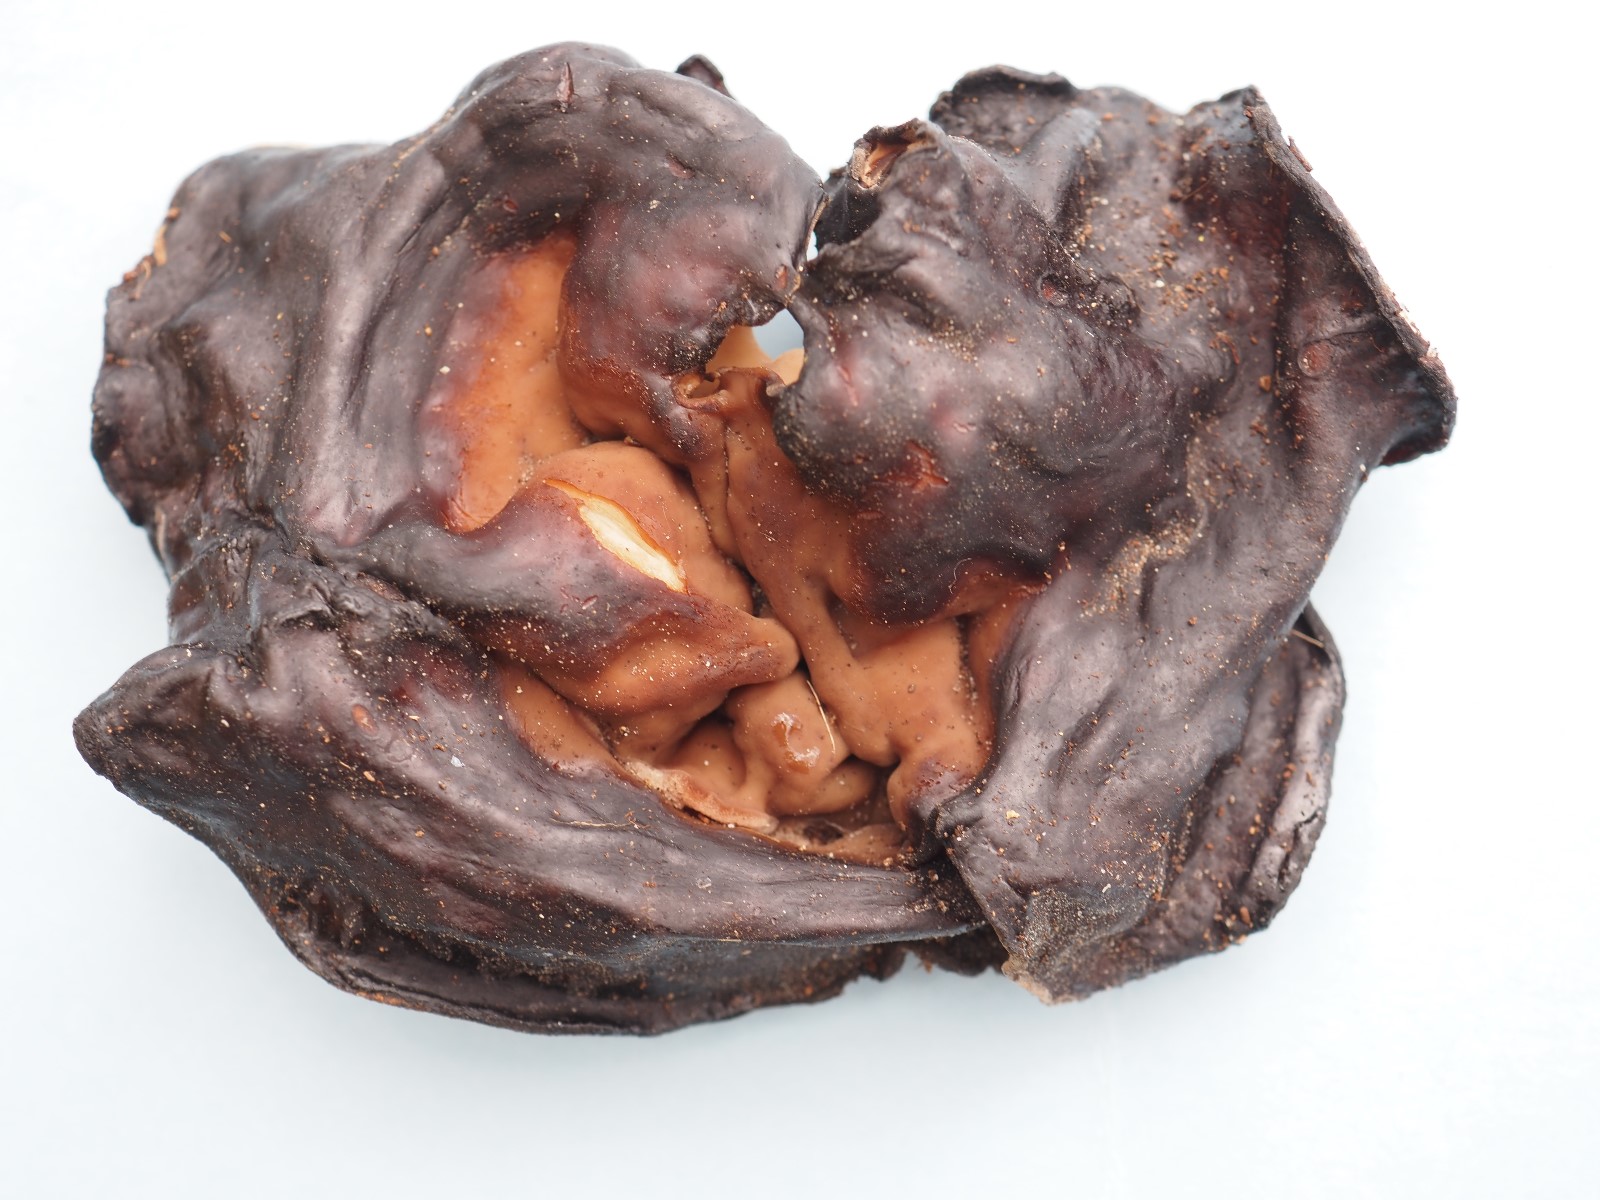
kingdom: Fungi
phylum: Ascomycota
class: Pezizomycetes
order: Pezizales
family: Discinaceae
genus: Discina
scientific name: Discina ancilis
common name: udbredt stenmorkel
